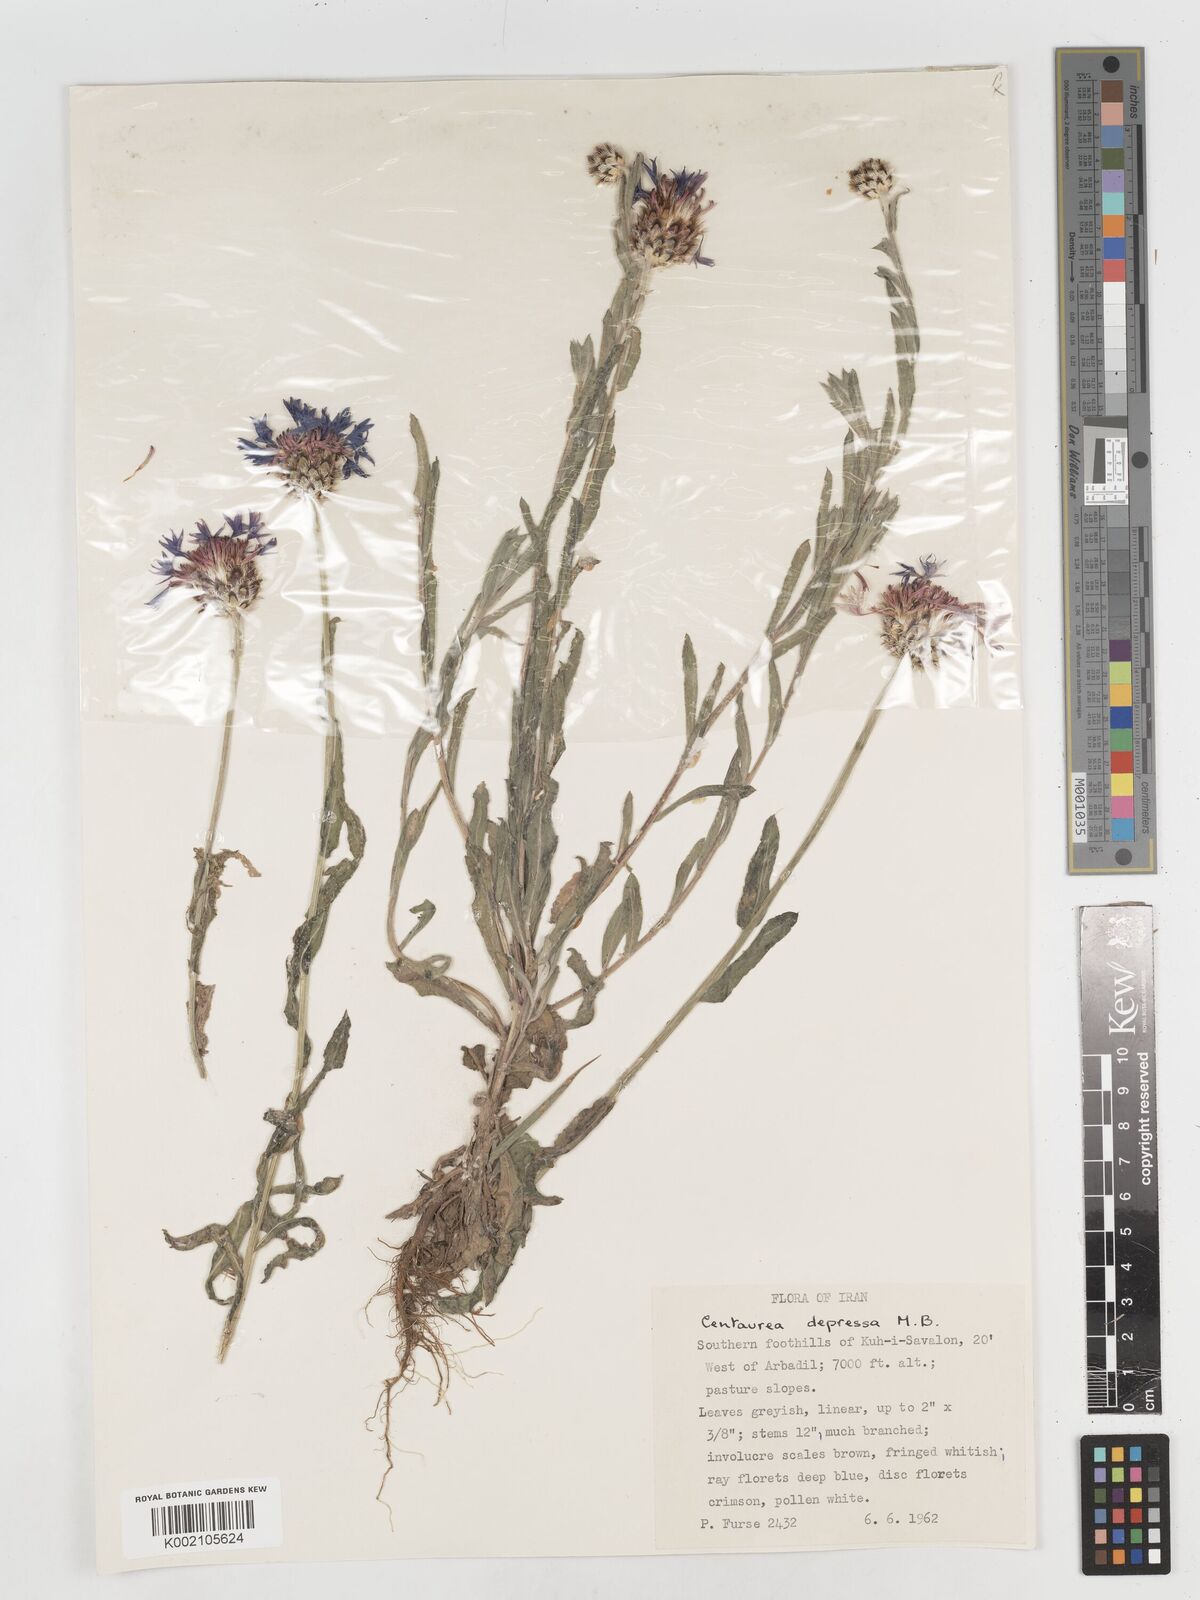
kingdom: Plantae
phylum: Tracheophyta
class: Magnoliopsida
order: Asterales
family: Asteraceae
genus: Centaurea
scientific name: Centaurea depressa
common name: Iranian knapweed
